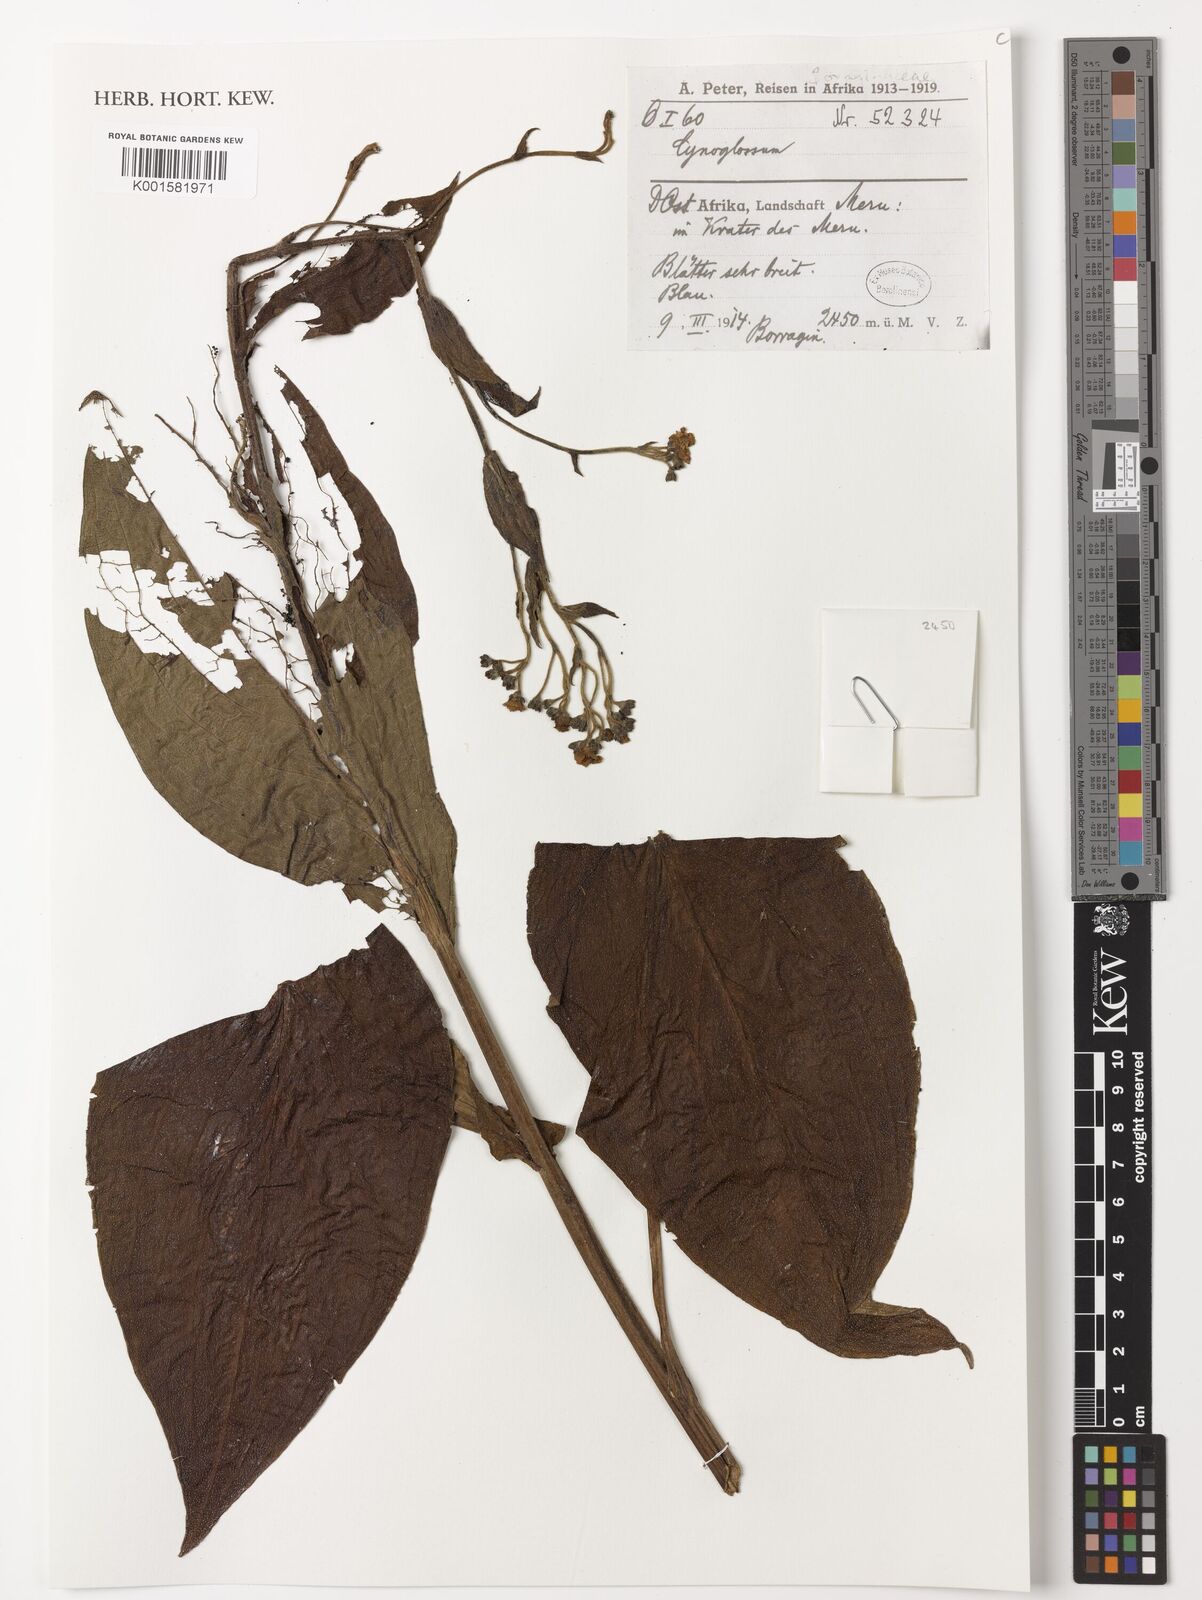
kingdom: Plantae
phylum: Tracheophyta
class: Magnoliopsida
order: Boraginales
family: Boraginaceae
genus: Cynoglossum
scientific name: Cynoglossum
